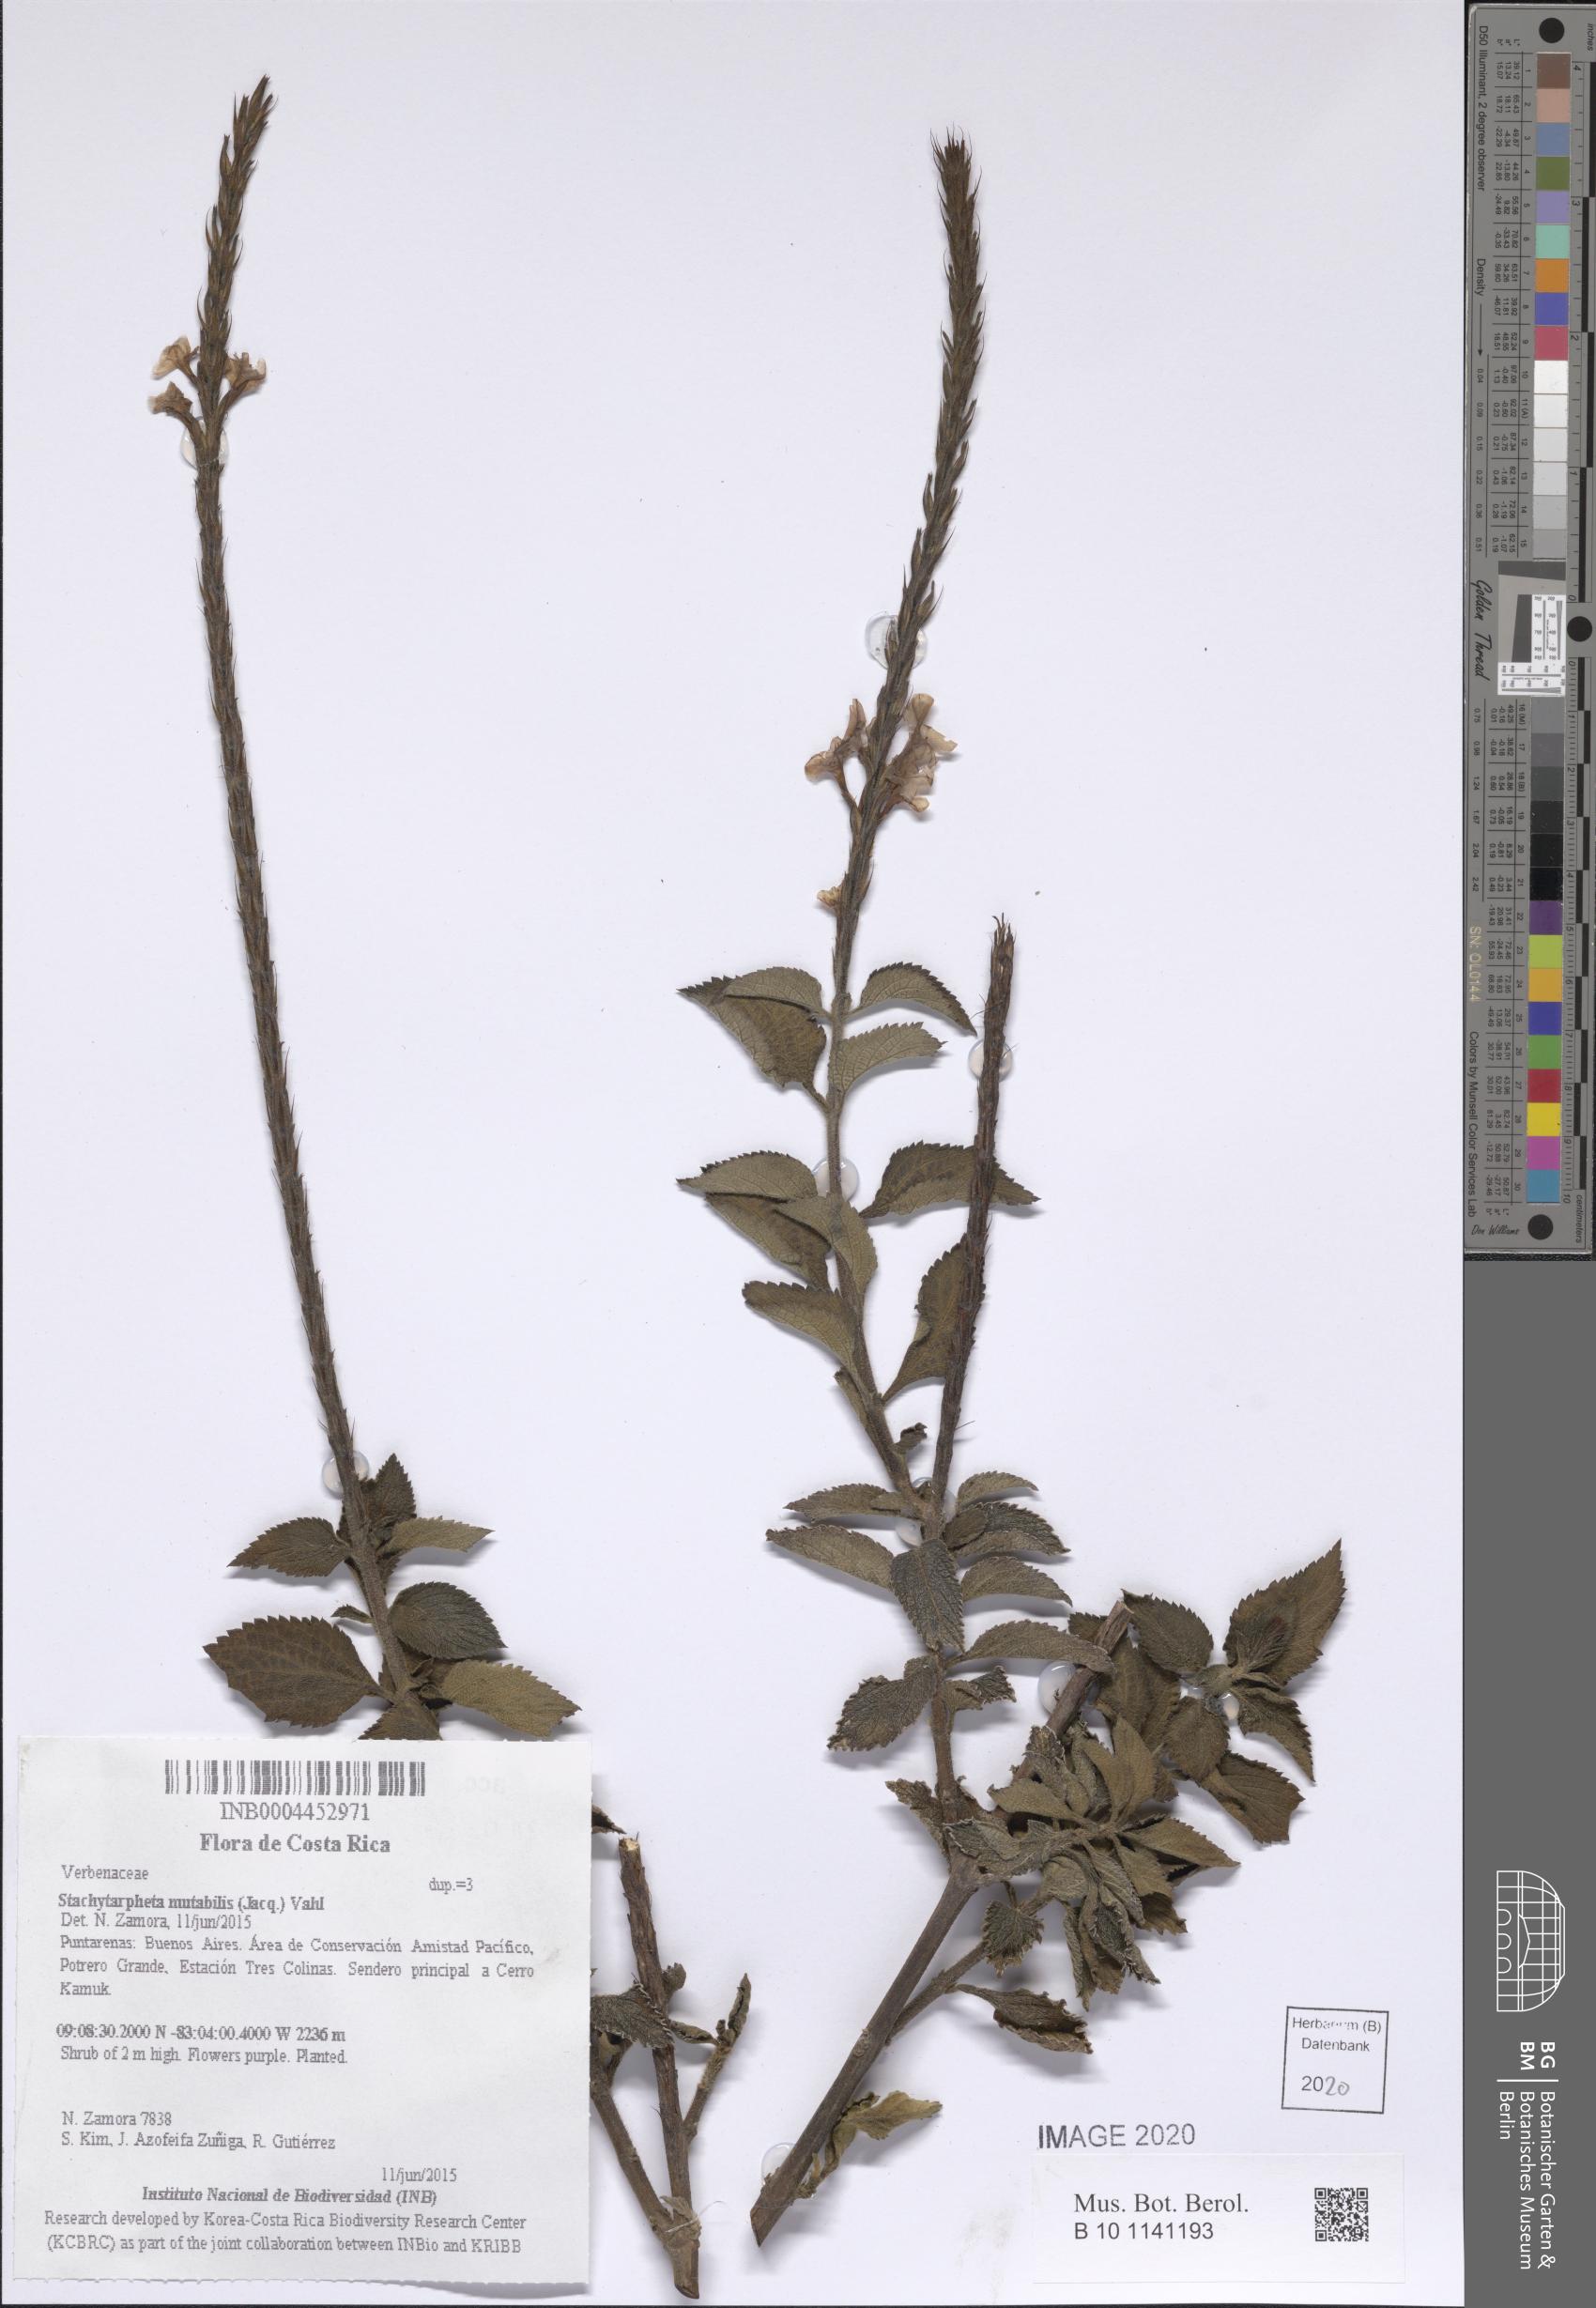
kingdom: Plantae
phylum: Tracheophyta
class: Magnoliopsida
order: Lamiales
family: Verbenaceae
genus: Stachytarpheta
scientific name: Stachytarpheta mutabilis
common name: Changeable velvetberry
